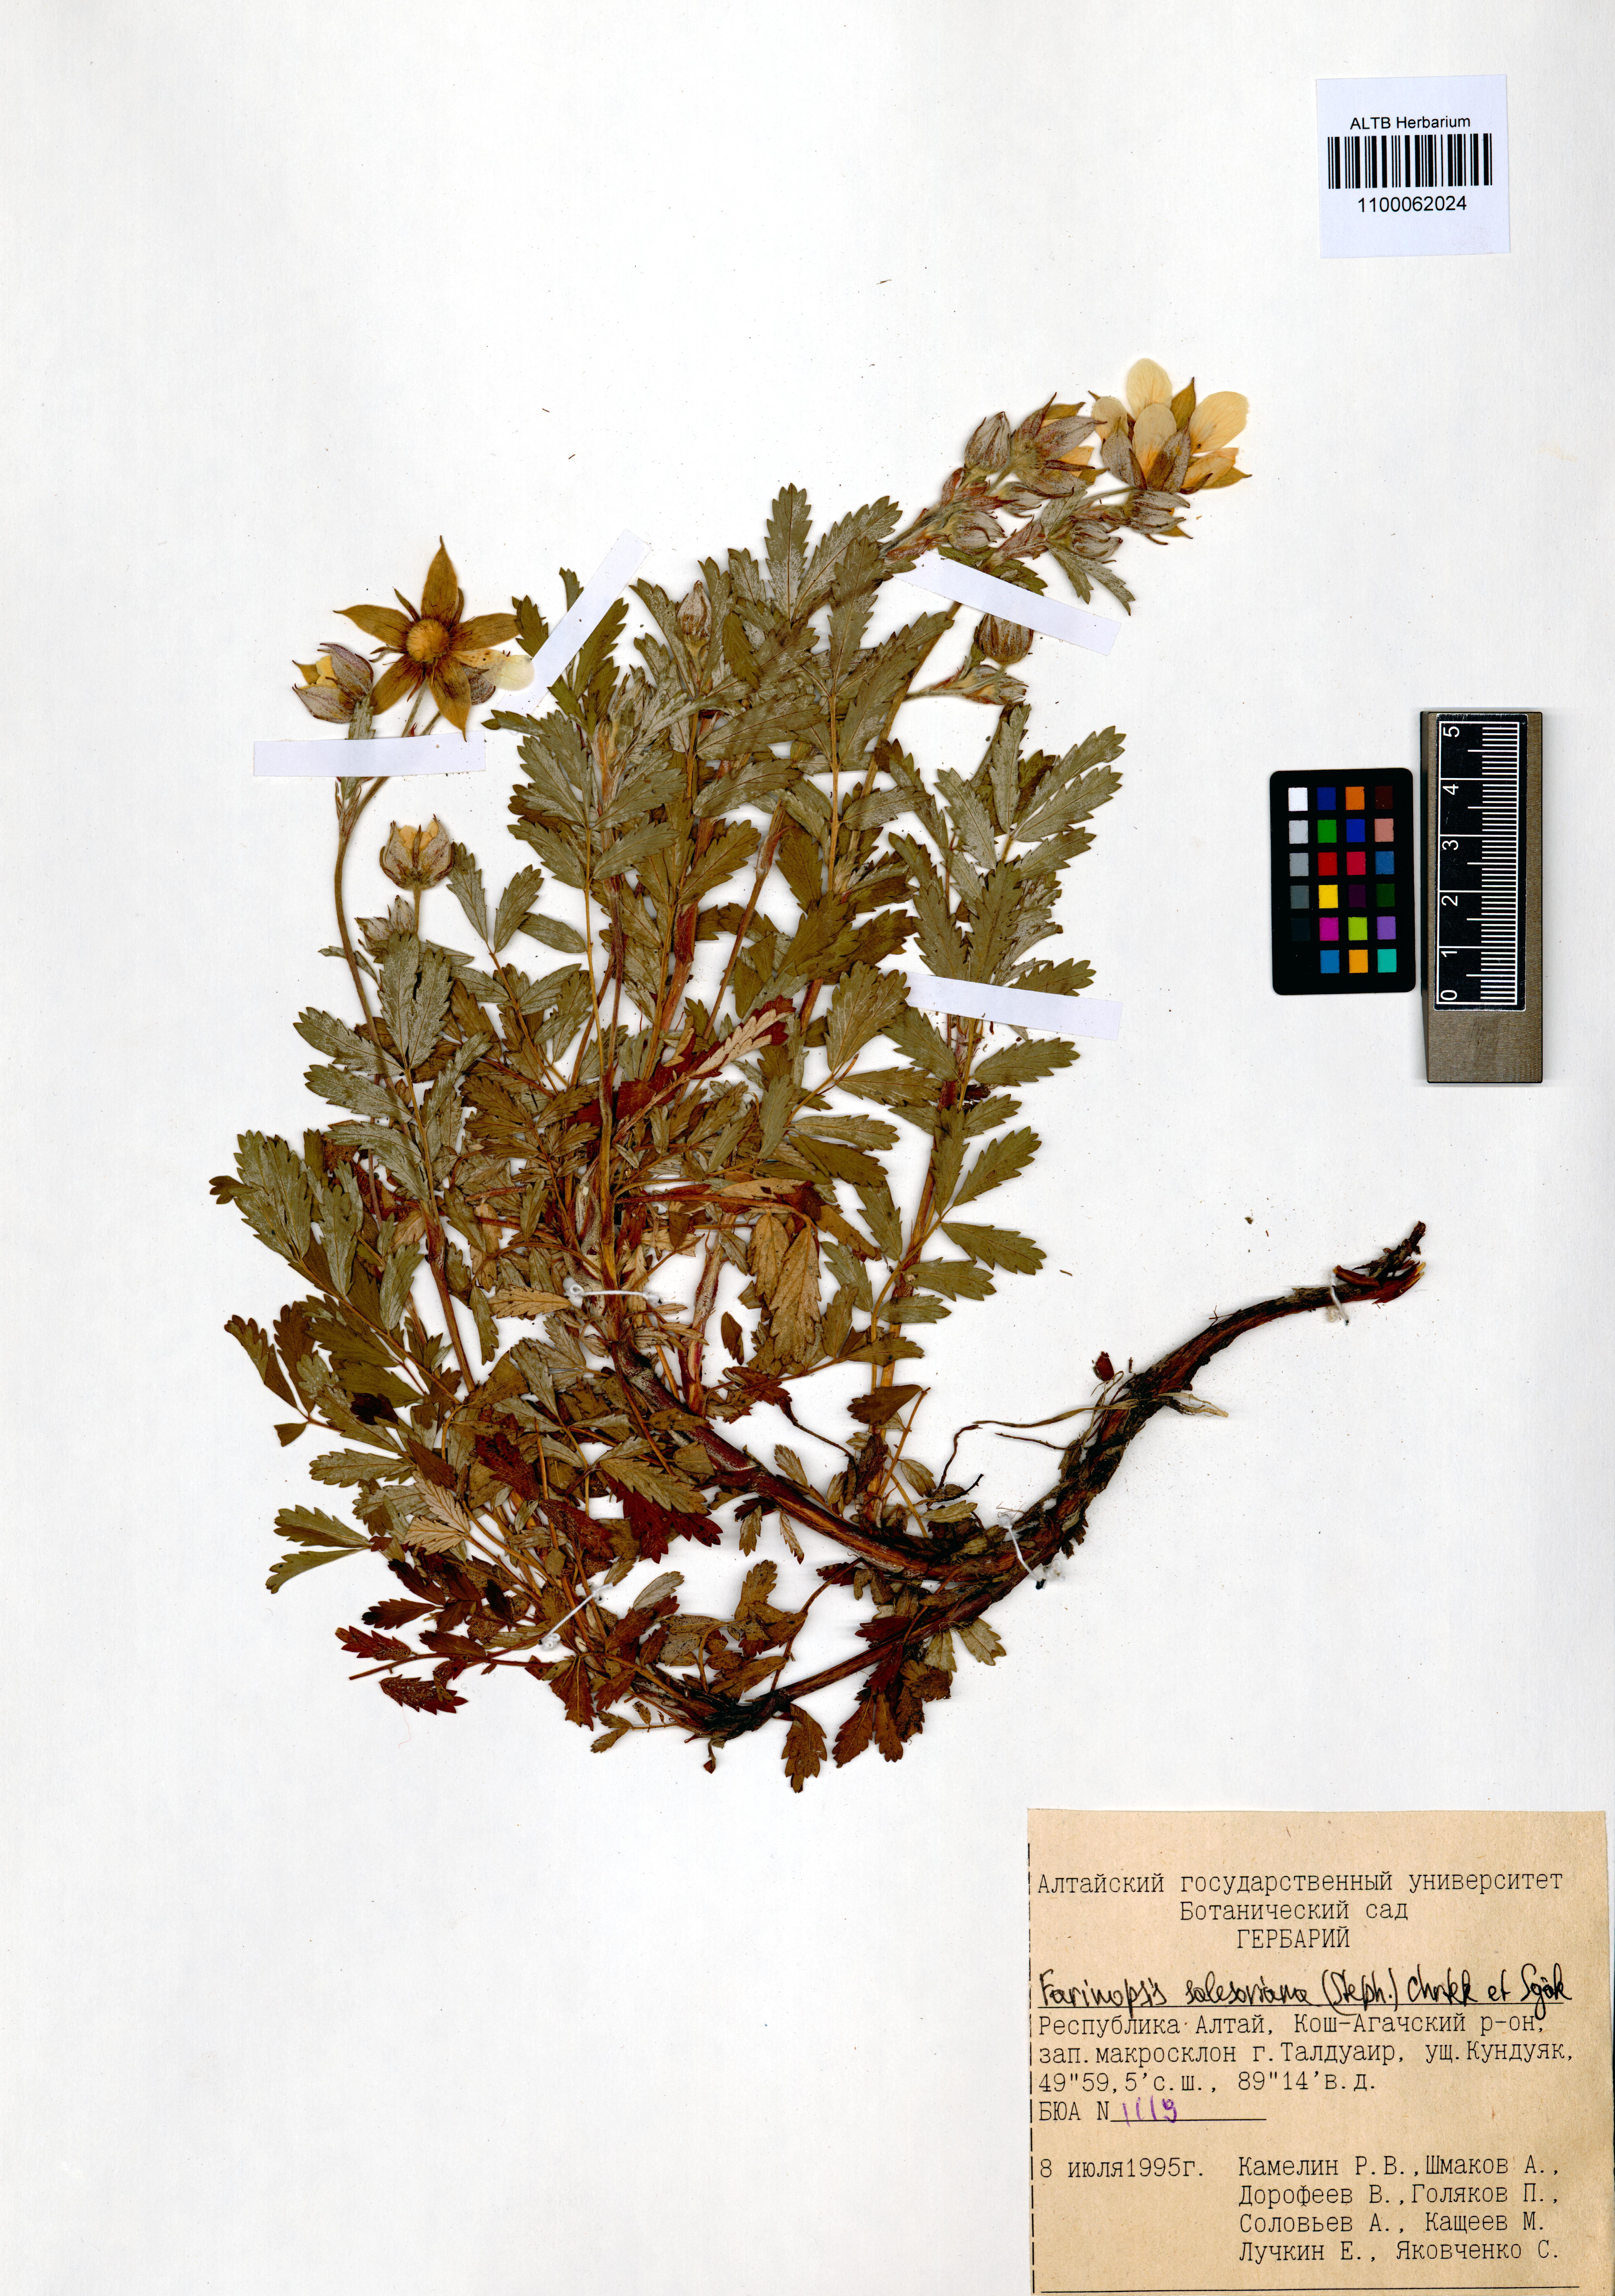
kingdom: Plantae
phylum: Tracheophyta
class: Magnoliopsida
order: Rosales
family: Rosaceae
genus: Farinopsis
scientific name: Farinopsis salesoviana
